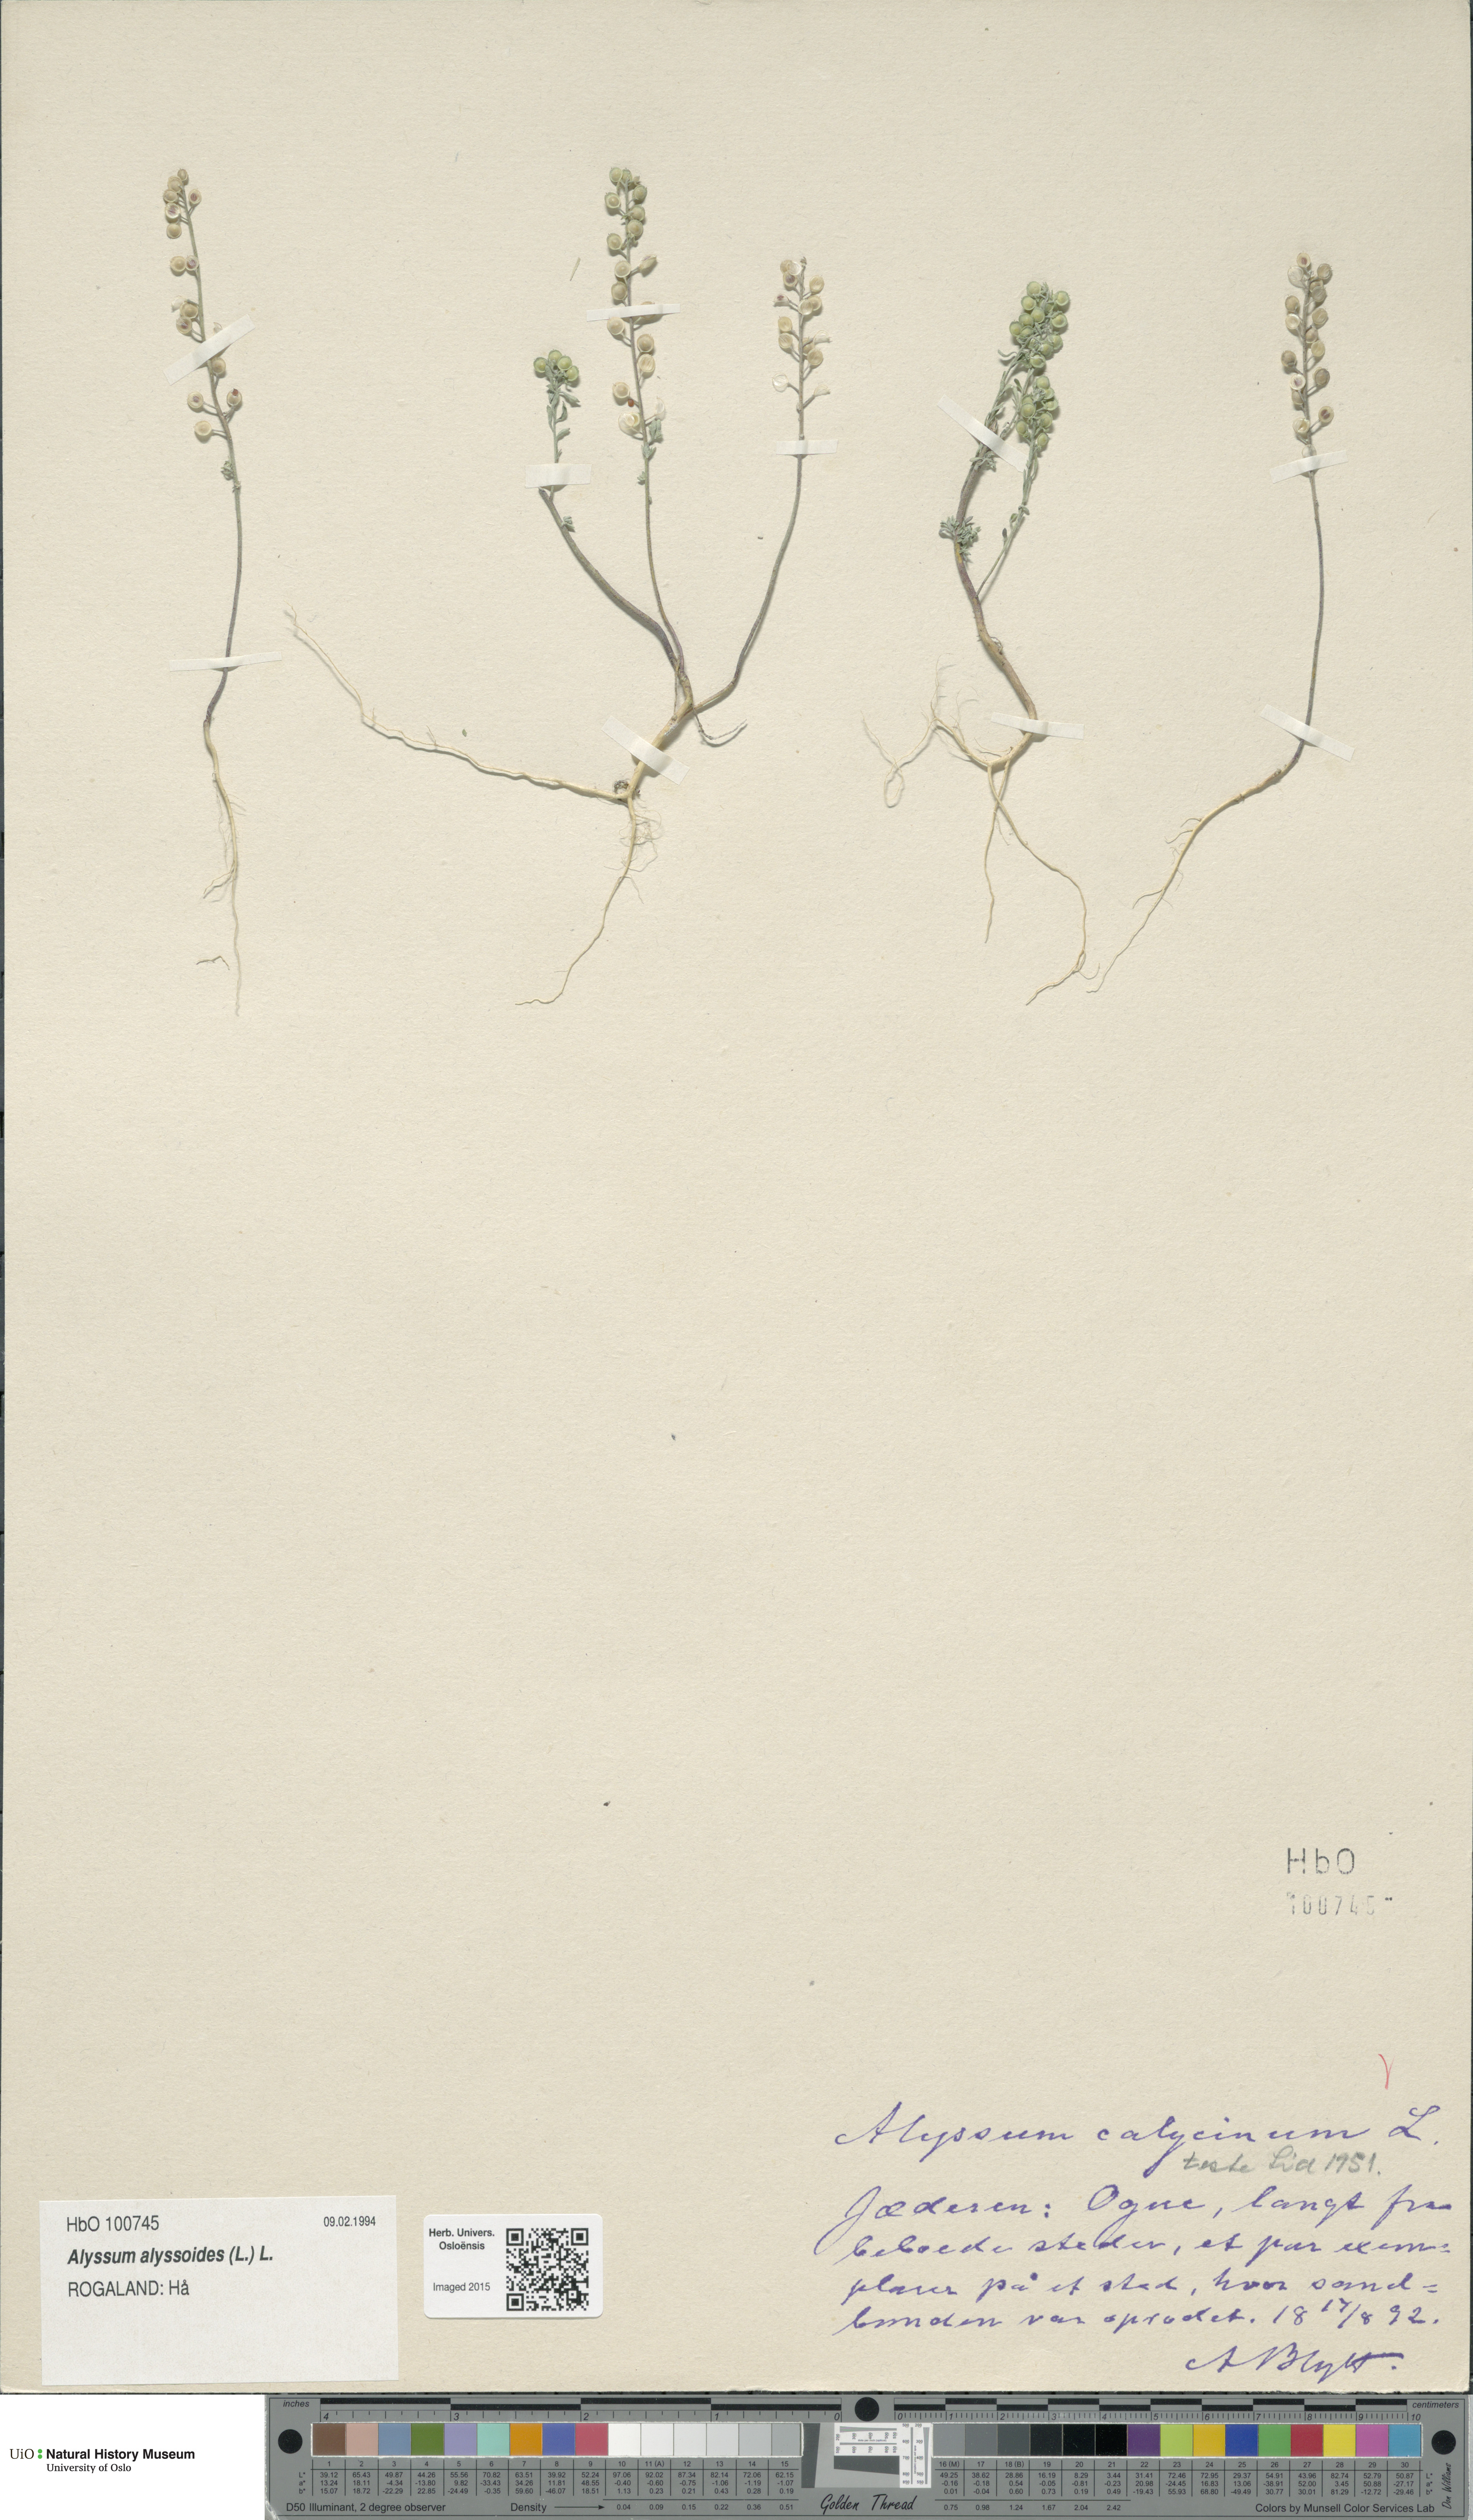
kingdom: Plantae
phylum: Tracheophyta
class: Magnoliopsida
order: Brassicales
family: Brassicaceae
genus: Alyssum
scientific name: Alyssum alyssoides
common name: Small alison
